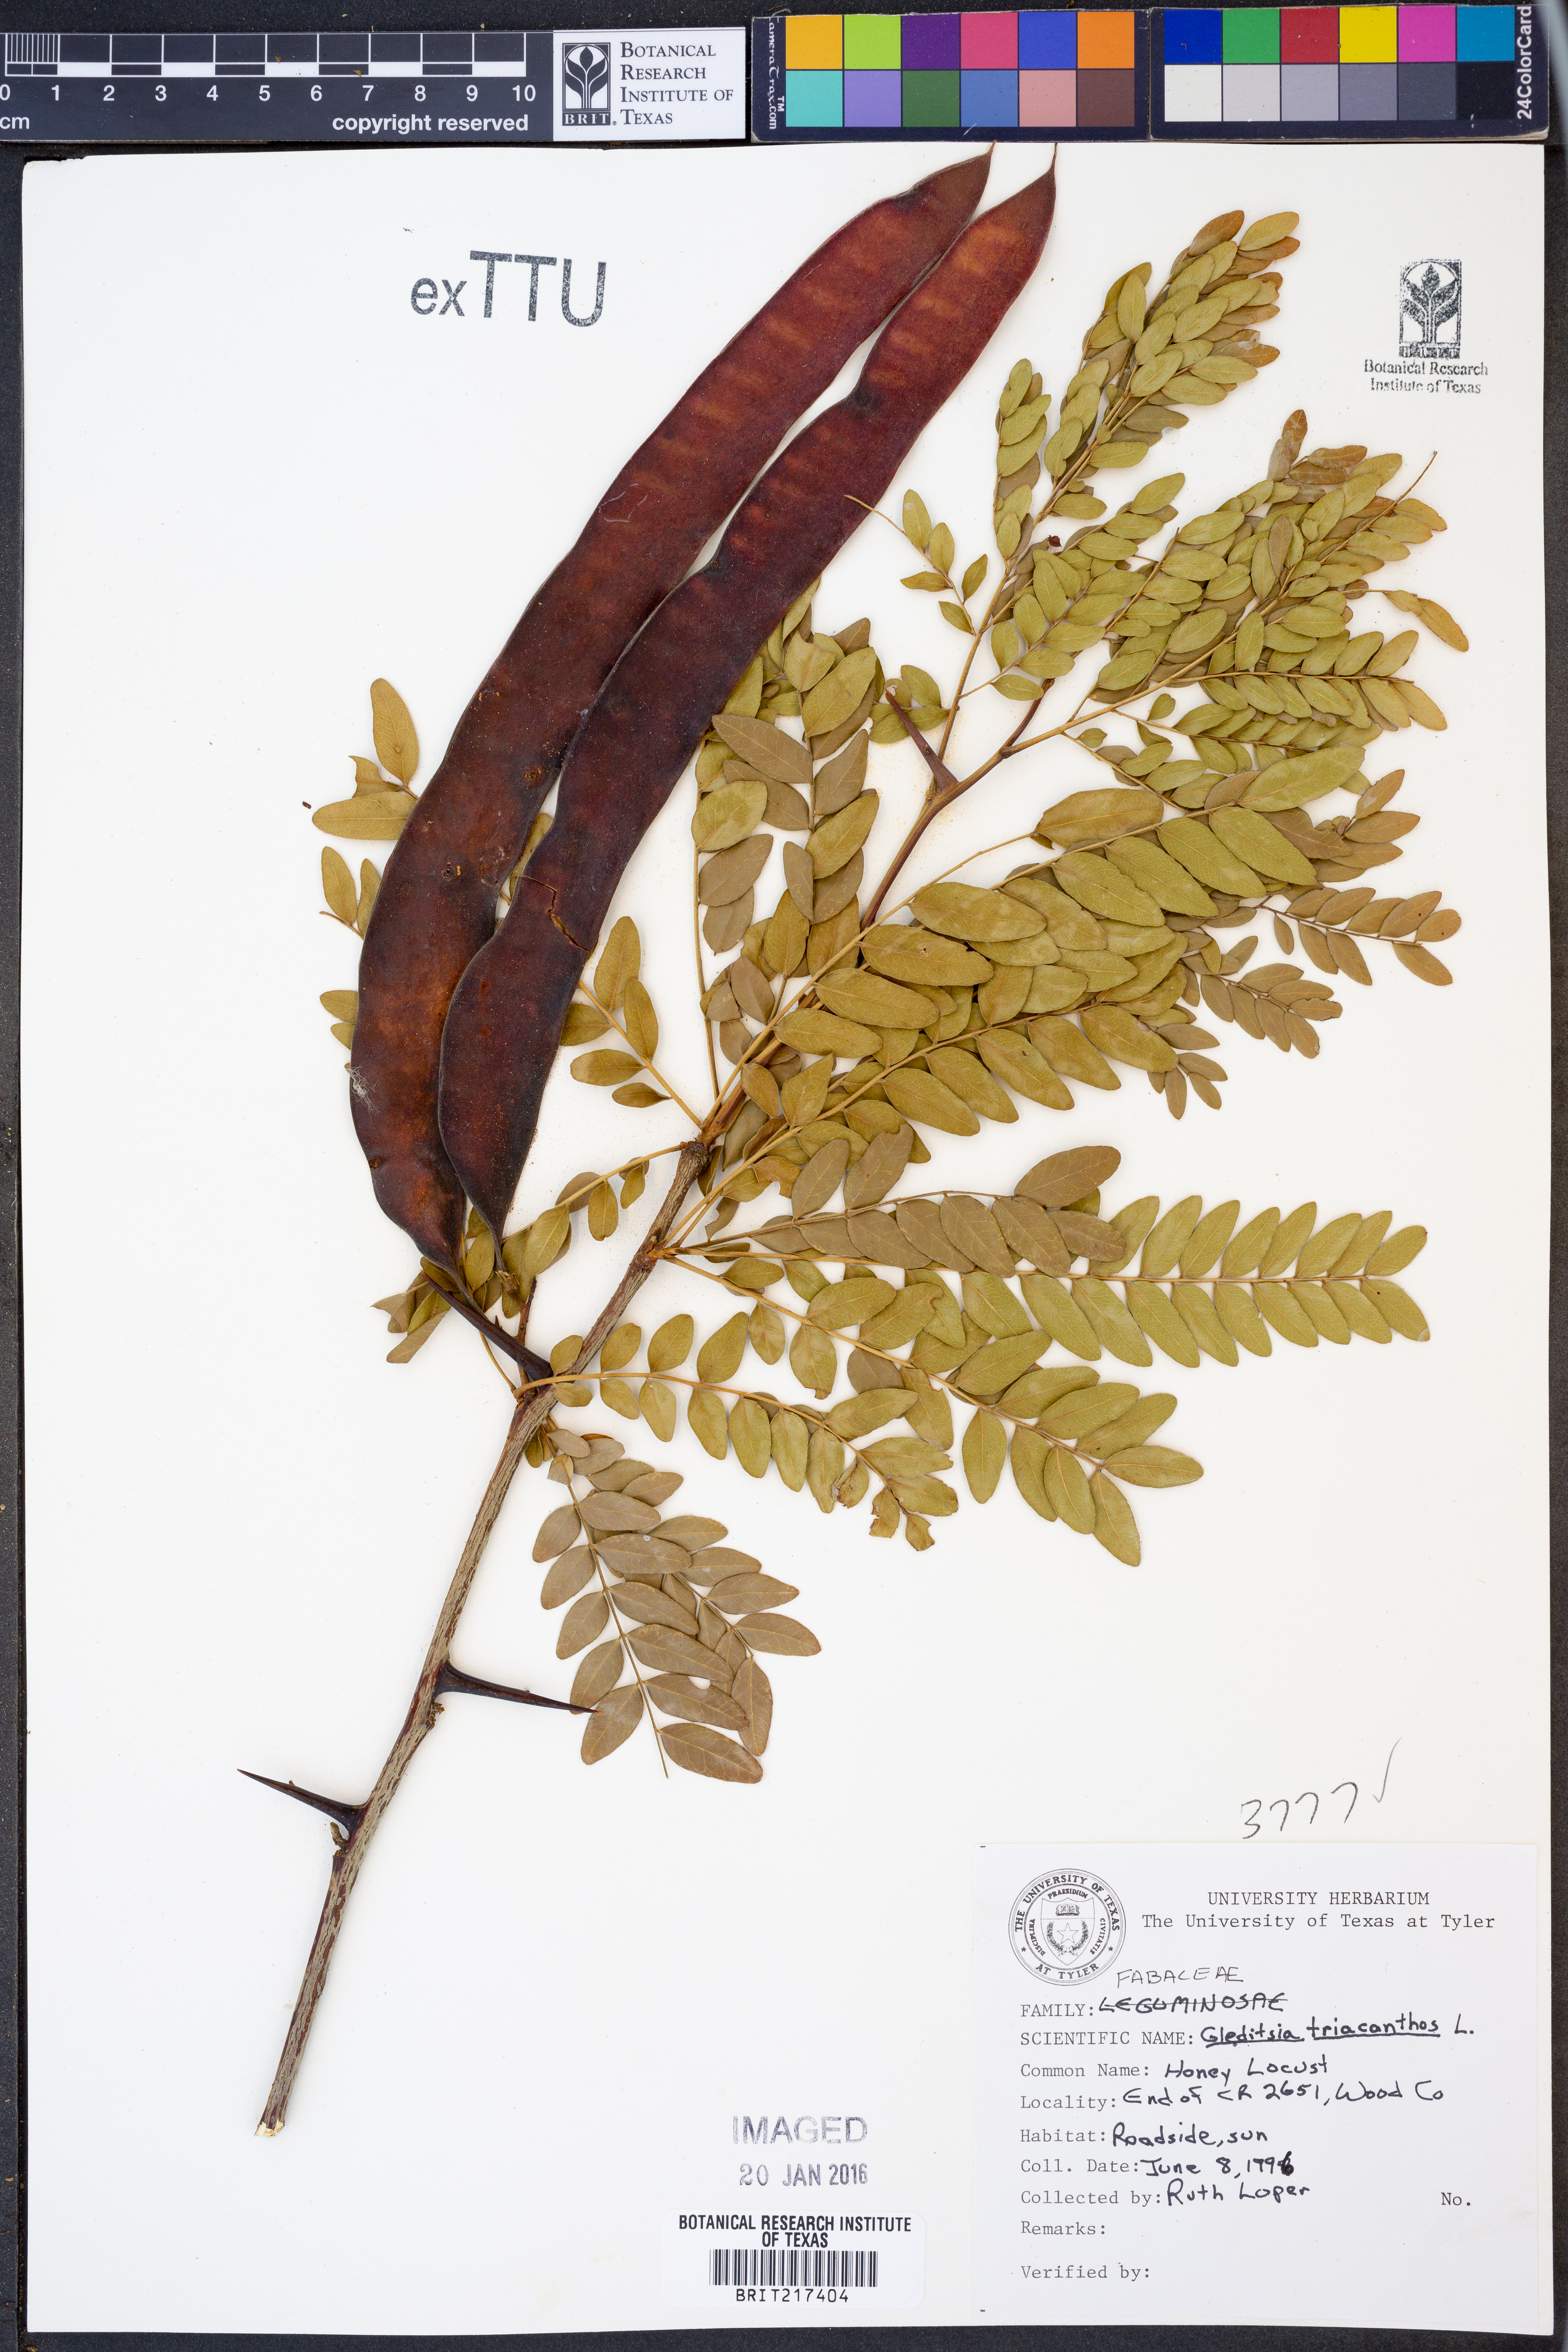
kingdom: Plantae
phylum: Tracheophyta
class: Magnoliopsida
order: Fabales
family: Fabaceae
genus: Gleditsia
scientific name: Gleditsia triacanthos
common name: Common honeylocust
